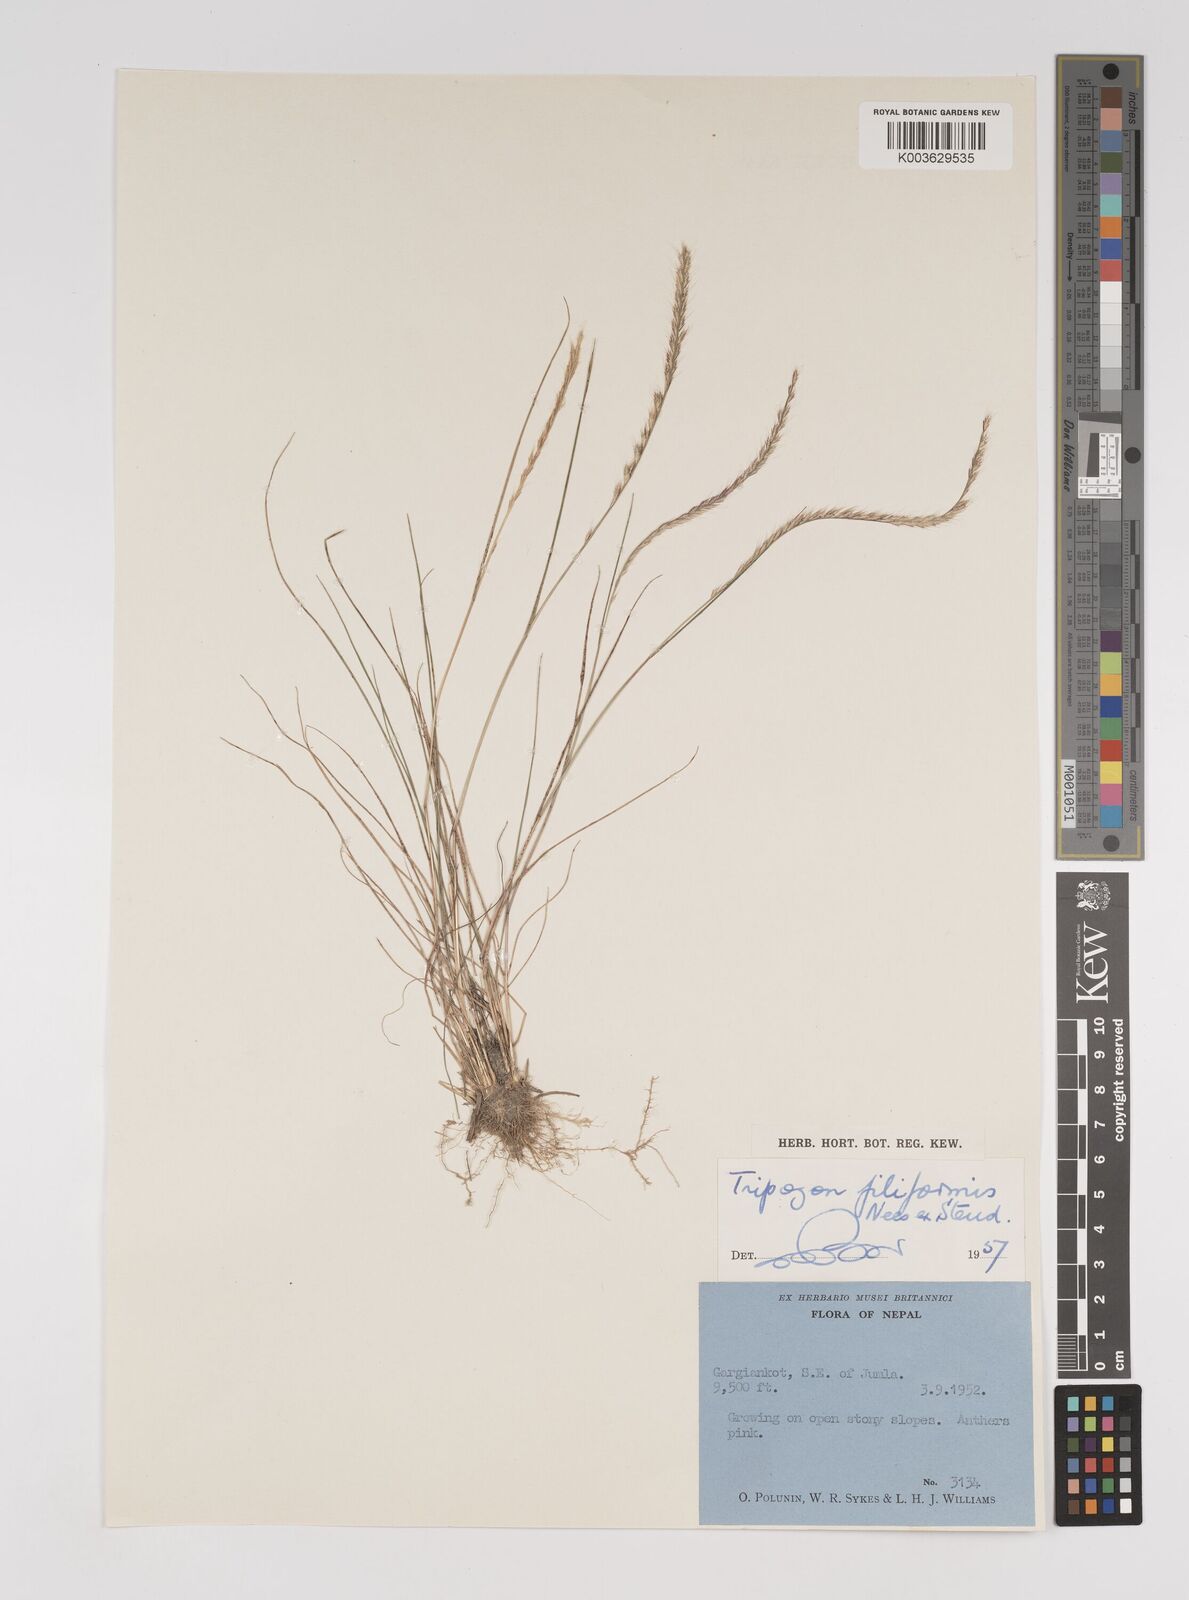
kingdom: Plantae
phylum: Tracheophyta
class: Liliopsida
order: Poales
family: Poaceae
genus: Tripogon
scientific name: Tripogon filiformis
